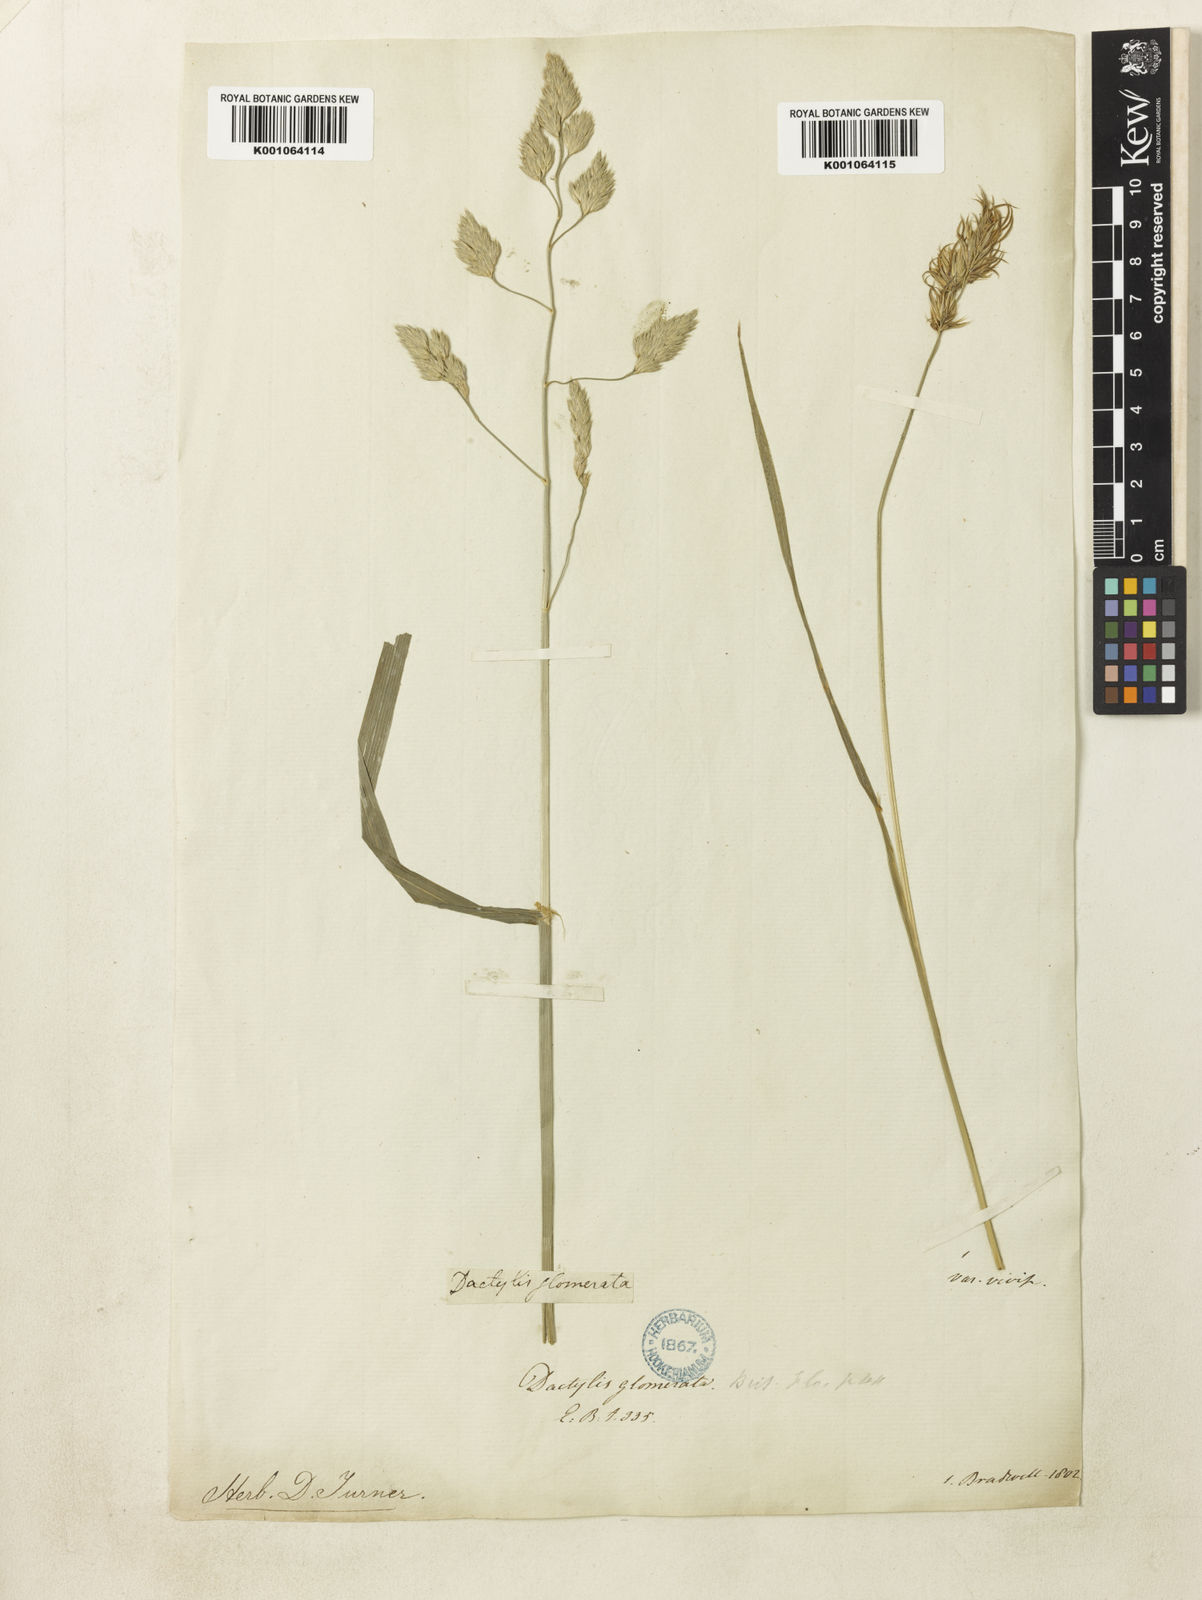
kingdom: Plantae
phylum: Tracheophyta
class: Liliopsida
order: Poales
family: Poaceae
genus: Dactylis
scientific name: Dactylis glomerata
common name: Orchardgrass
